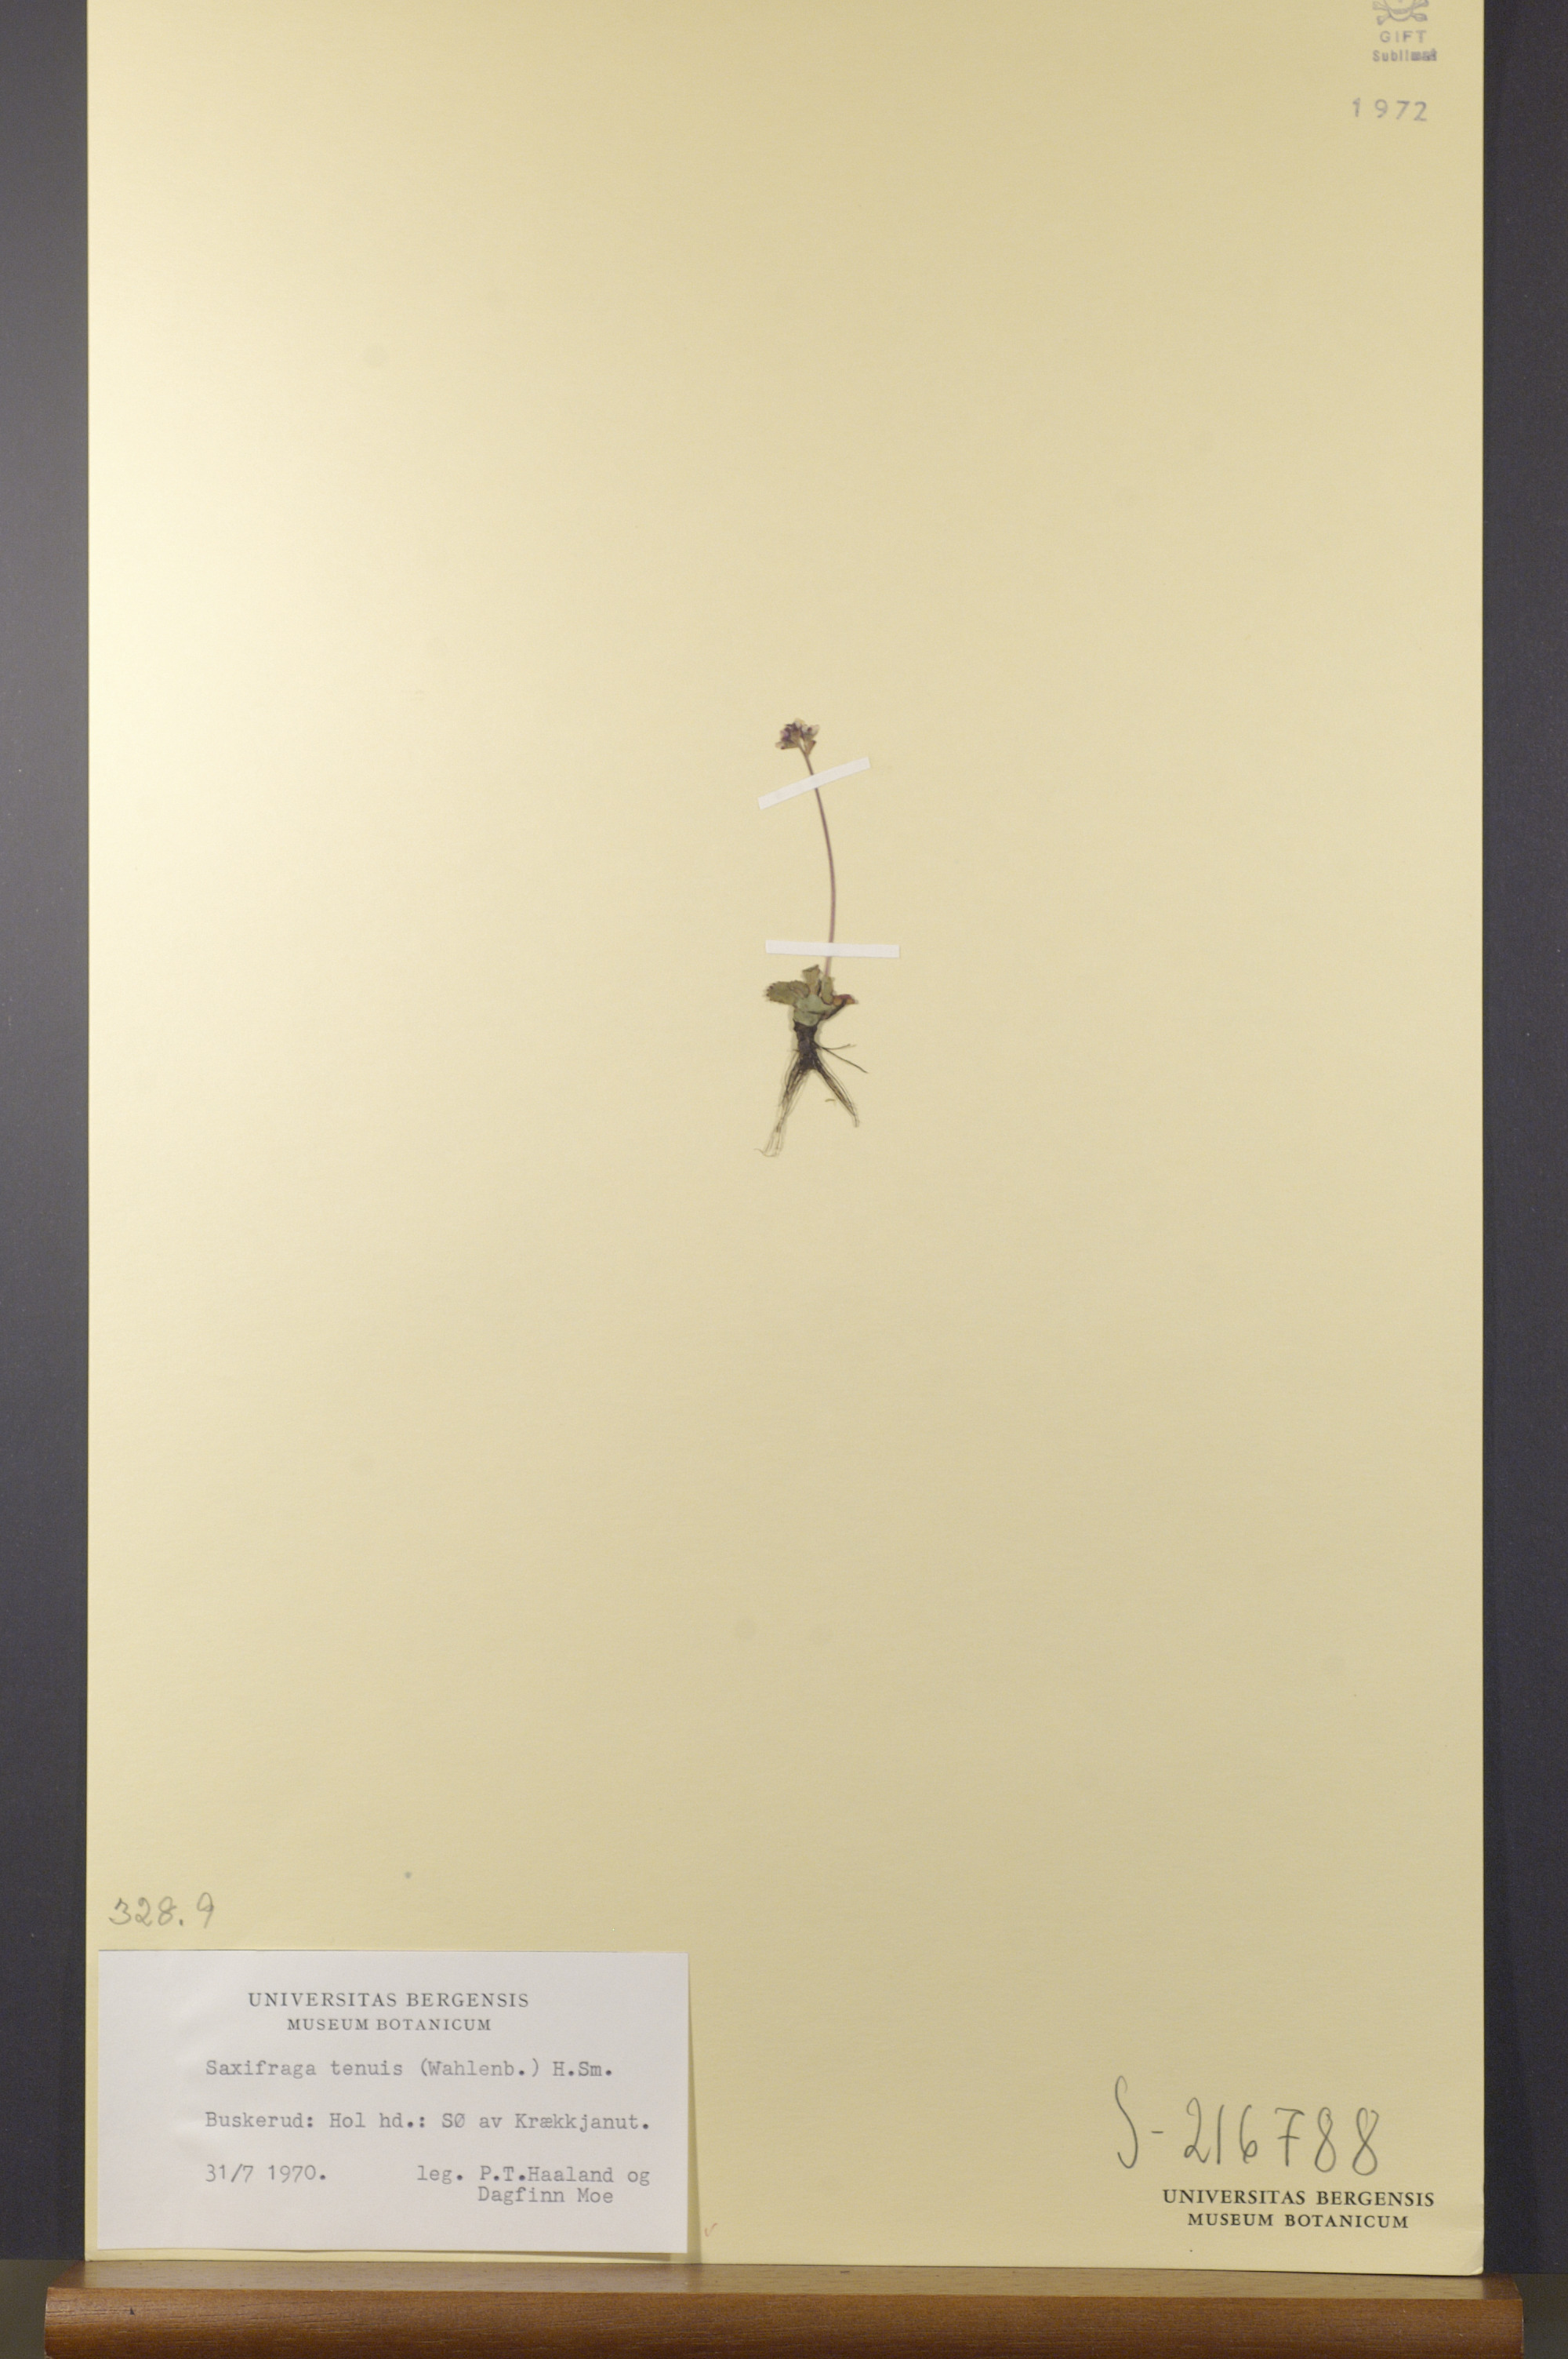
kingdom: Plantae
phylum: Tracheophyta
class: Magnoliopsida
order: Saxifragales
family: Saxifragaceae
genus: Micranthes
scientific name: Micranthes tenuis
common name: Ottertail pass saxifrage
